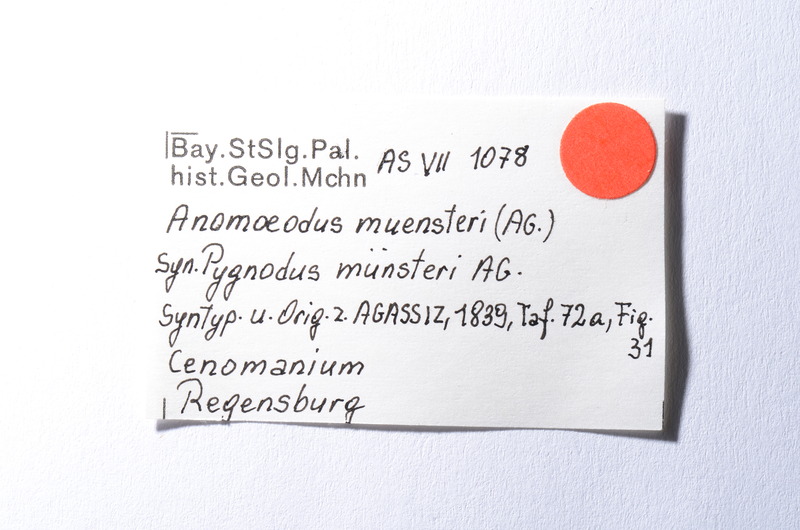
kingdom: Animalia
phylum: Chordata
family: Pycnodontidae
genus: Anomoeodus
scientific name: Anomoeodus
